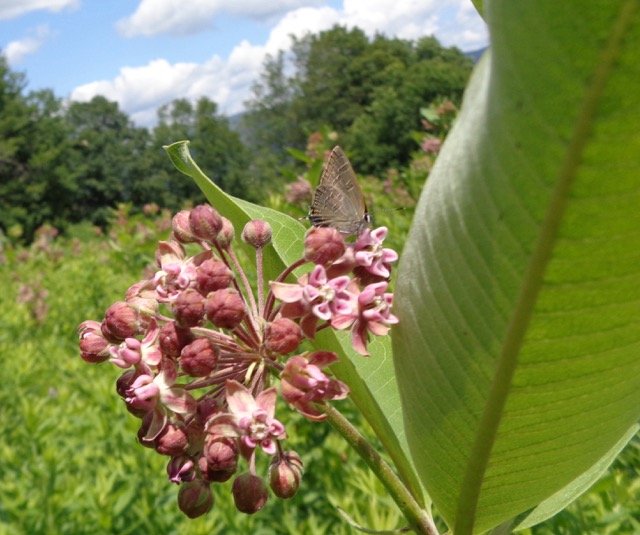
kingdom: Animalia
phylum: Arthropoda
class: Insecta
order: Lepidoptera
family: Lycaenidae
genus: Satyrium
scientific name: Satyrium calanus
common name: Banded Hairstreak
